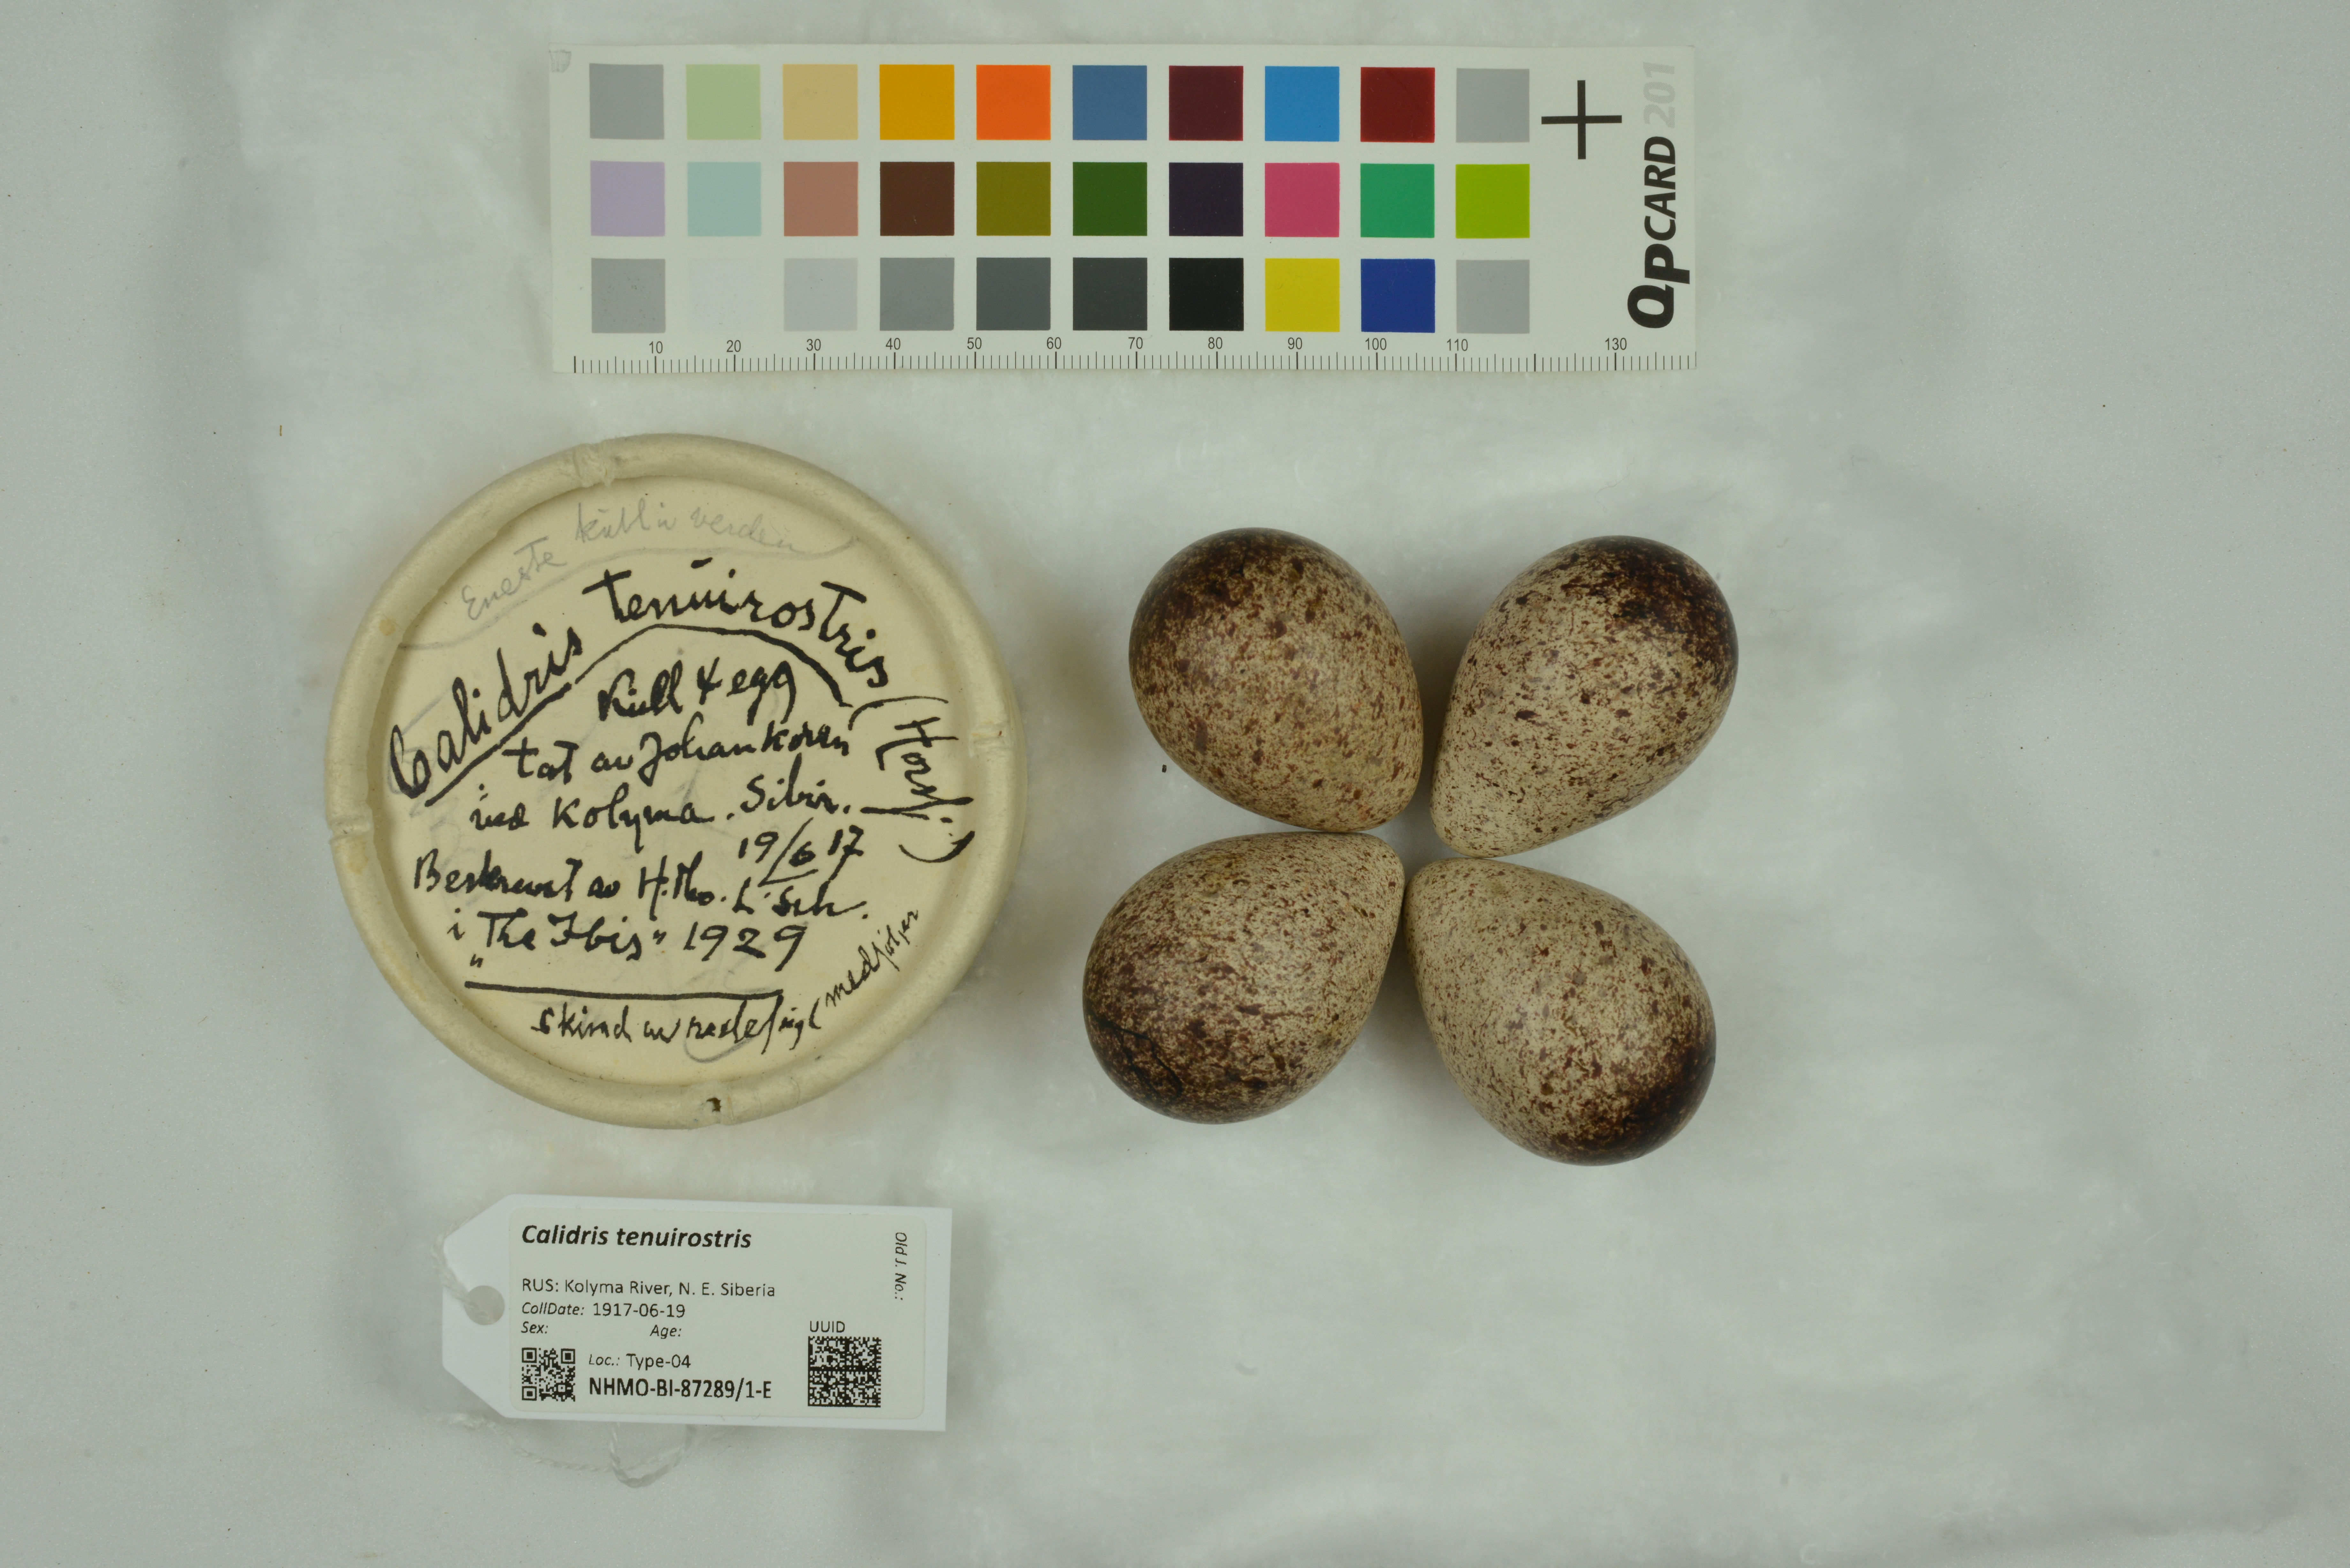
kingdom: Animalia
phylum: Chordata
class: Aves
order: Charadriiformes
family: Scolopacidae
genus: Calidris
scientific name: Calidris tenuirostris
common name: Great knot
